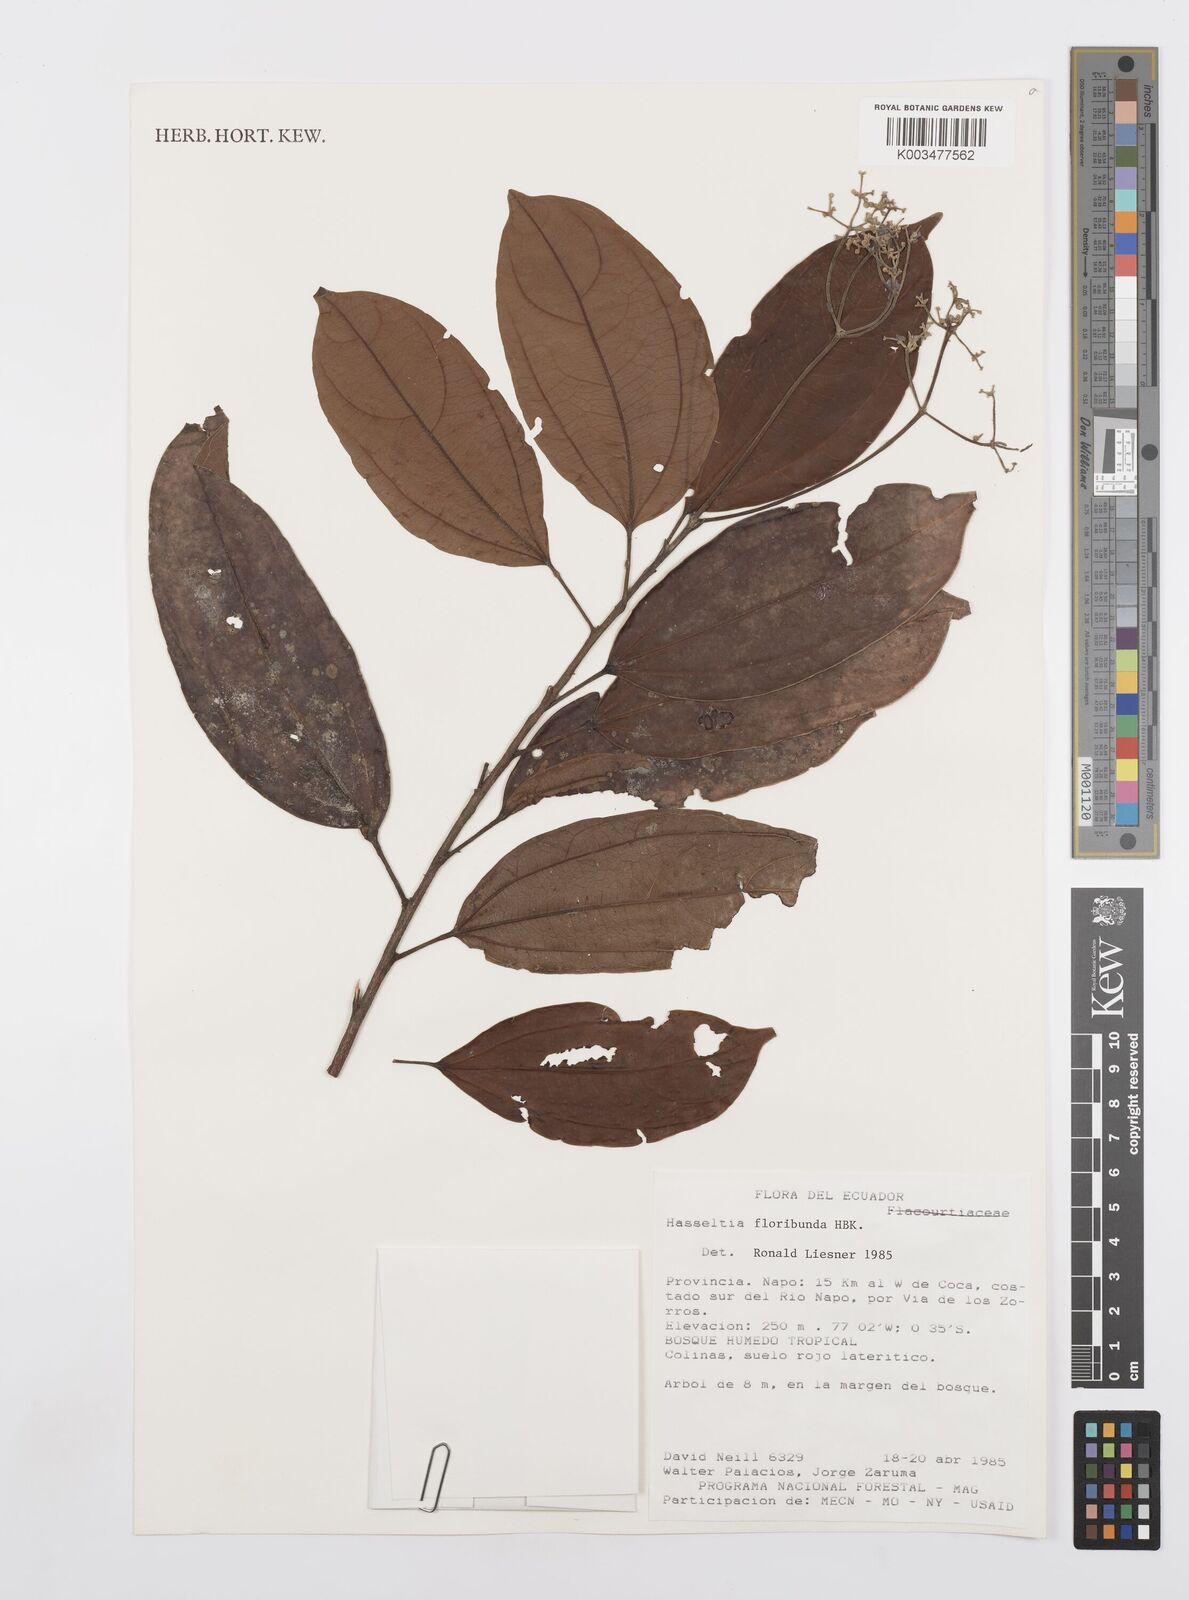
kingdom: Plantae
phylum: Tracheophyta
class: Magnoliopsida
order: Malpighiales
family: Salicaceae
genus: Hasseltia
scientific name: Hasseltia floribunda
